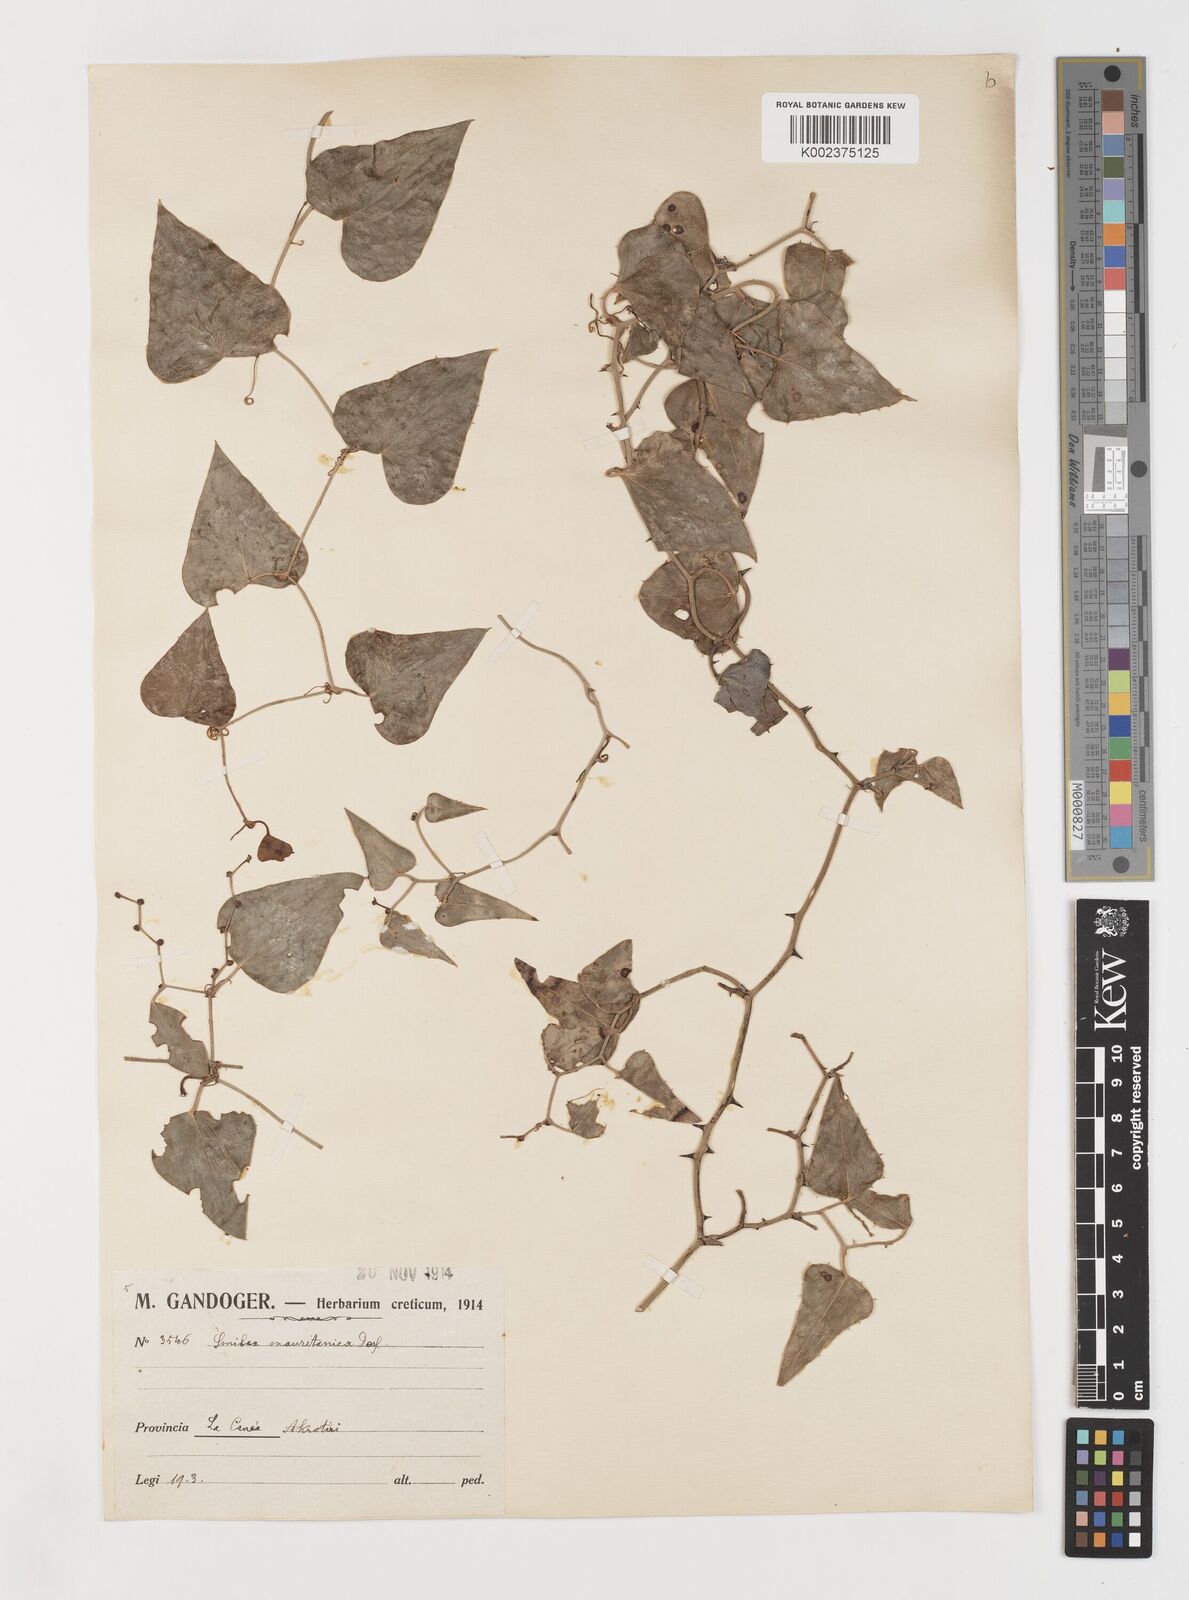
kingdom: Plantae
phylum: Tracheophyta
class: Liliopsida
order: Liliales
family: Smilacaceae
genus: Smilax
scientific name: Smilax aspera
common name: Common smilax
